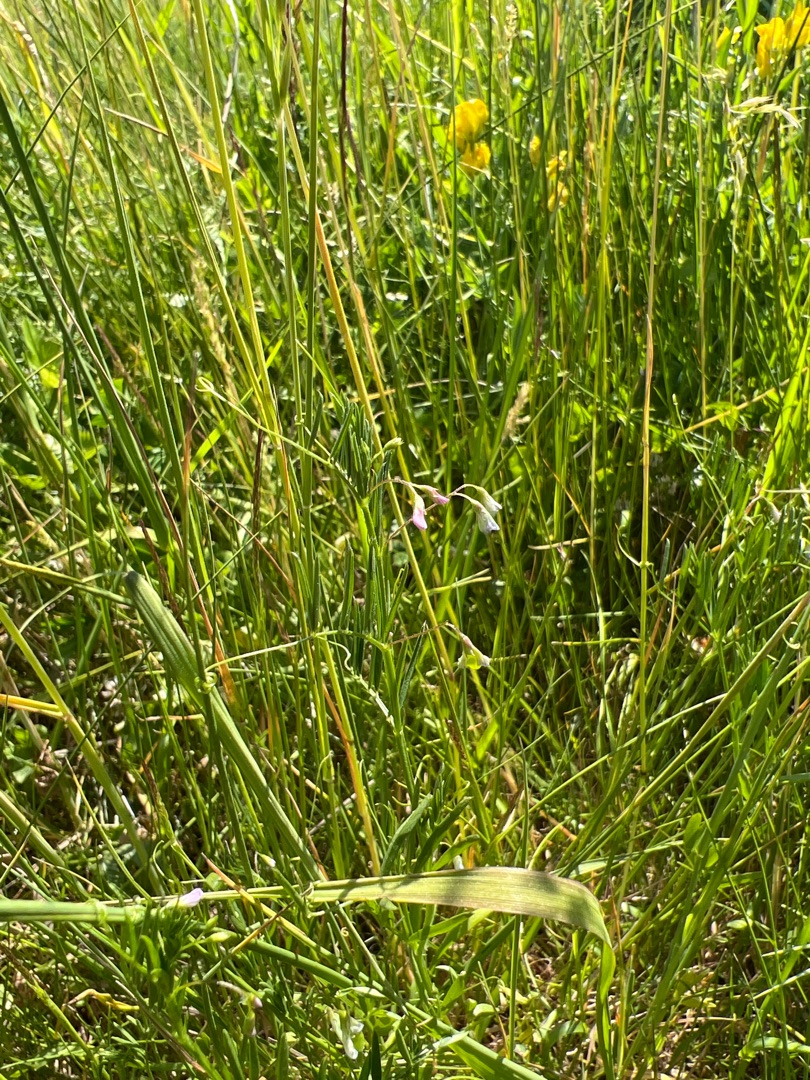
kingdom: Plantae
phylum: Tracheophyta
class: Magnoliopsida
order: Fabales
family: Fabaceae
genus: Vicia
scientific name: Vicia tetrasperma
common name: Tadder-vikke
